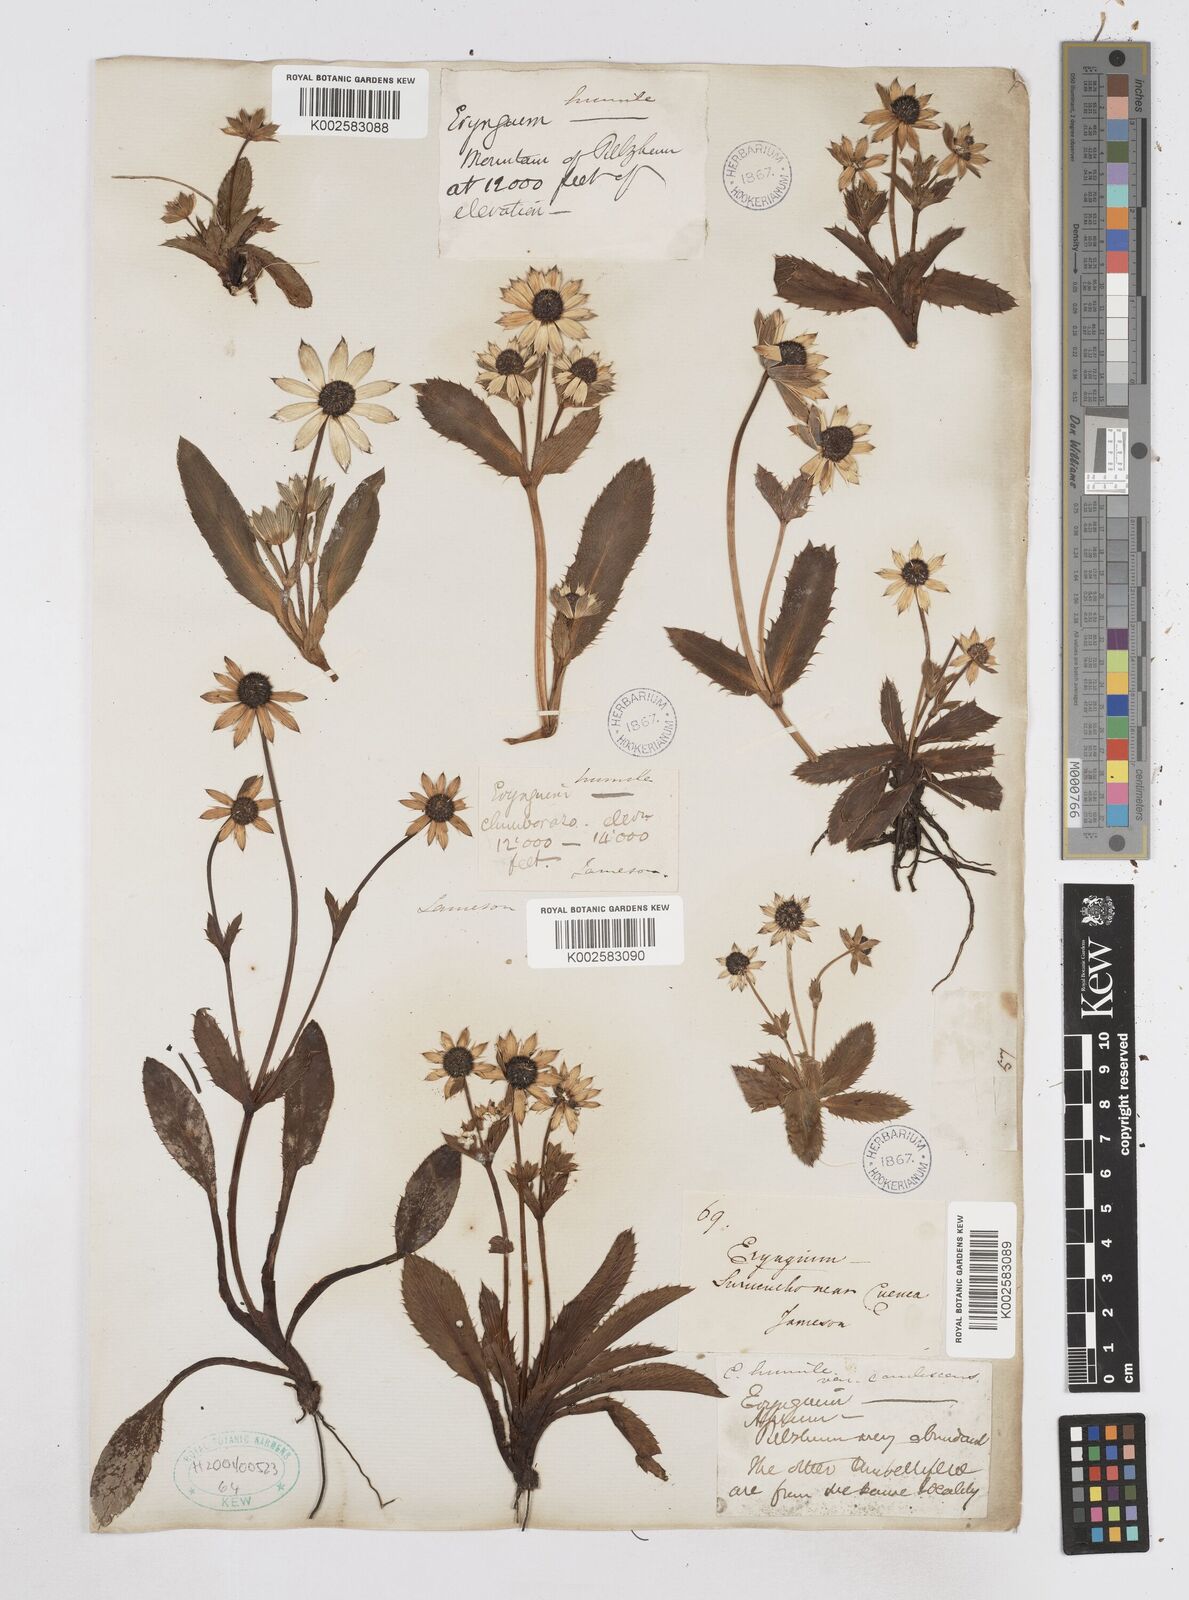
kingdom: Plantae
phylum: Tracheophyta
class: Magnoliopsida
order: Apiales
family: Apiaceae
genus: Eryngium
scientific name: Eryngium humile
